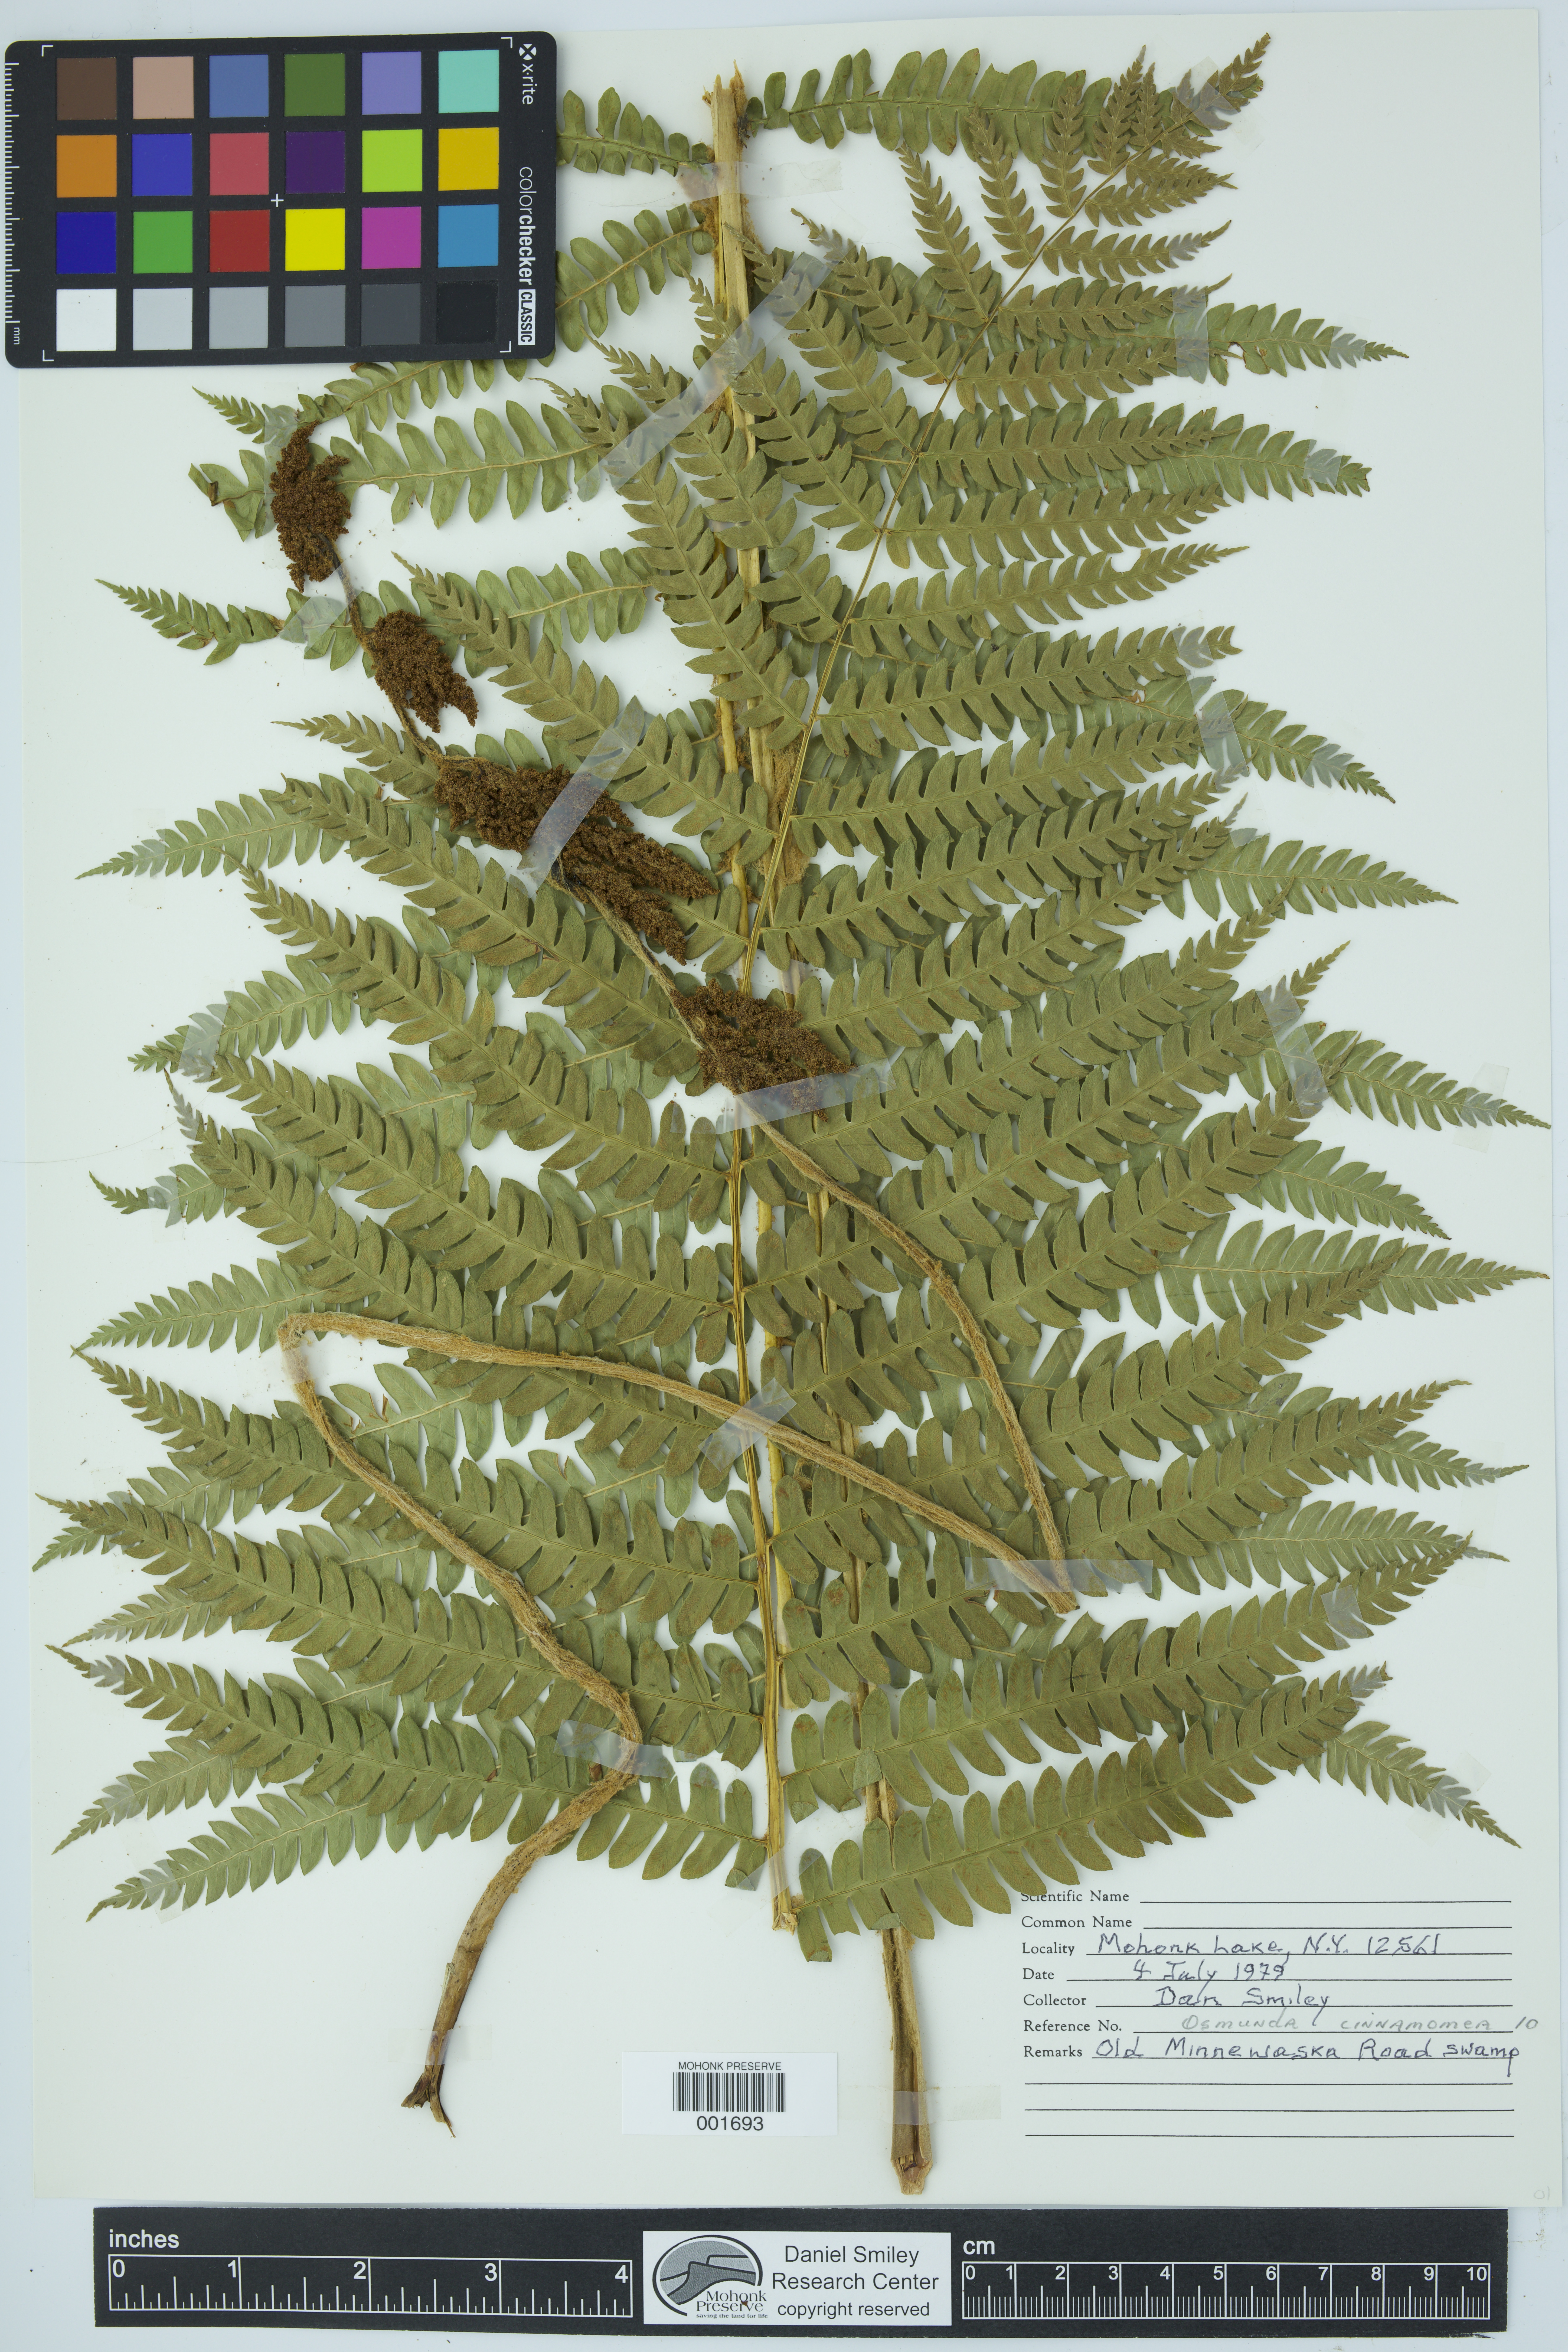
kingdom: Plantae
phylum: Tracheophyta
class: Polypodiopsida
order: Osmundales
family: Osmundaceae
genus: Osmundastrum
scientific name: Osmundastrum cinnamomeum
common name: Cinnamon fern
